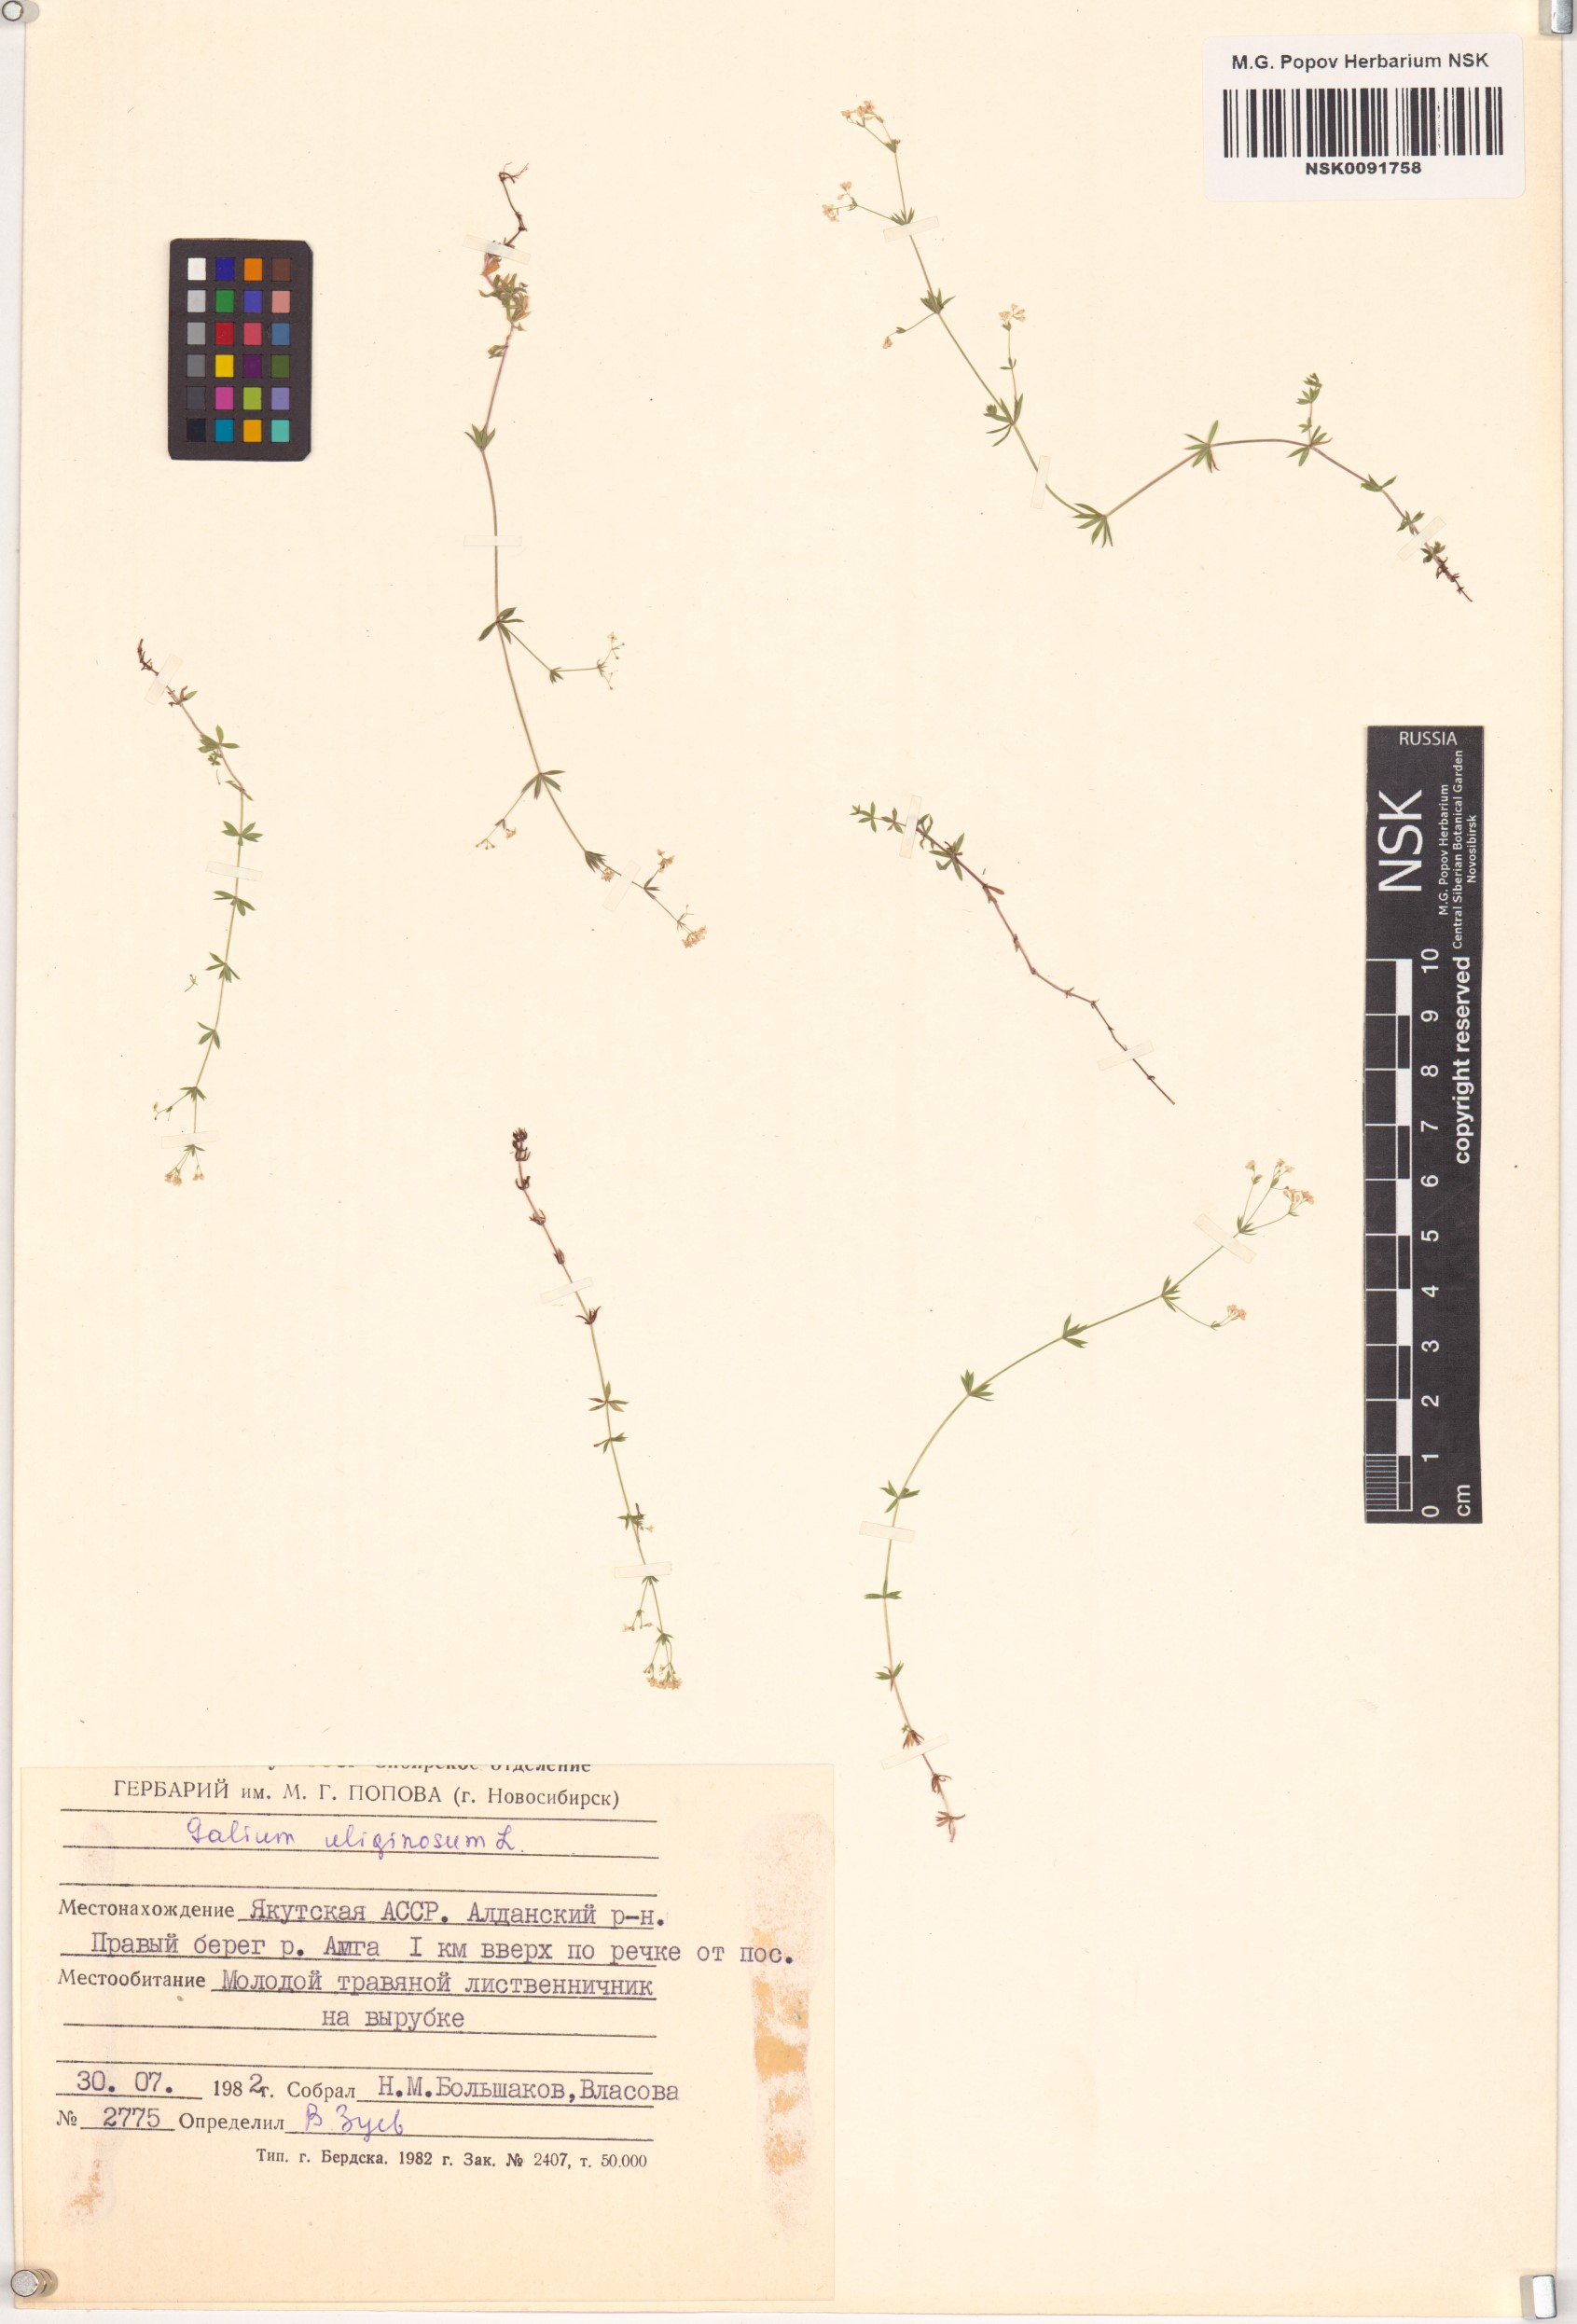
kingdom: Plantae
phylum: Tracheophyta
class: Magnoliopsida
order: Gentianales
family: Rubiaceae
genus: Galium
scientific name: Galium uliginosum
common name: Fen bedstraw
